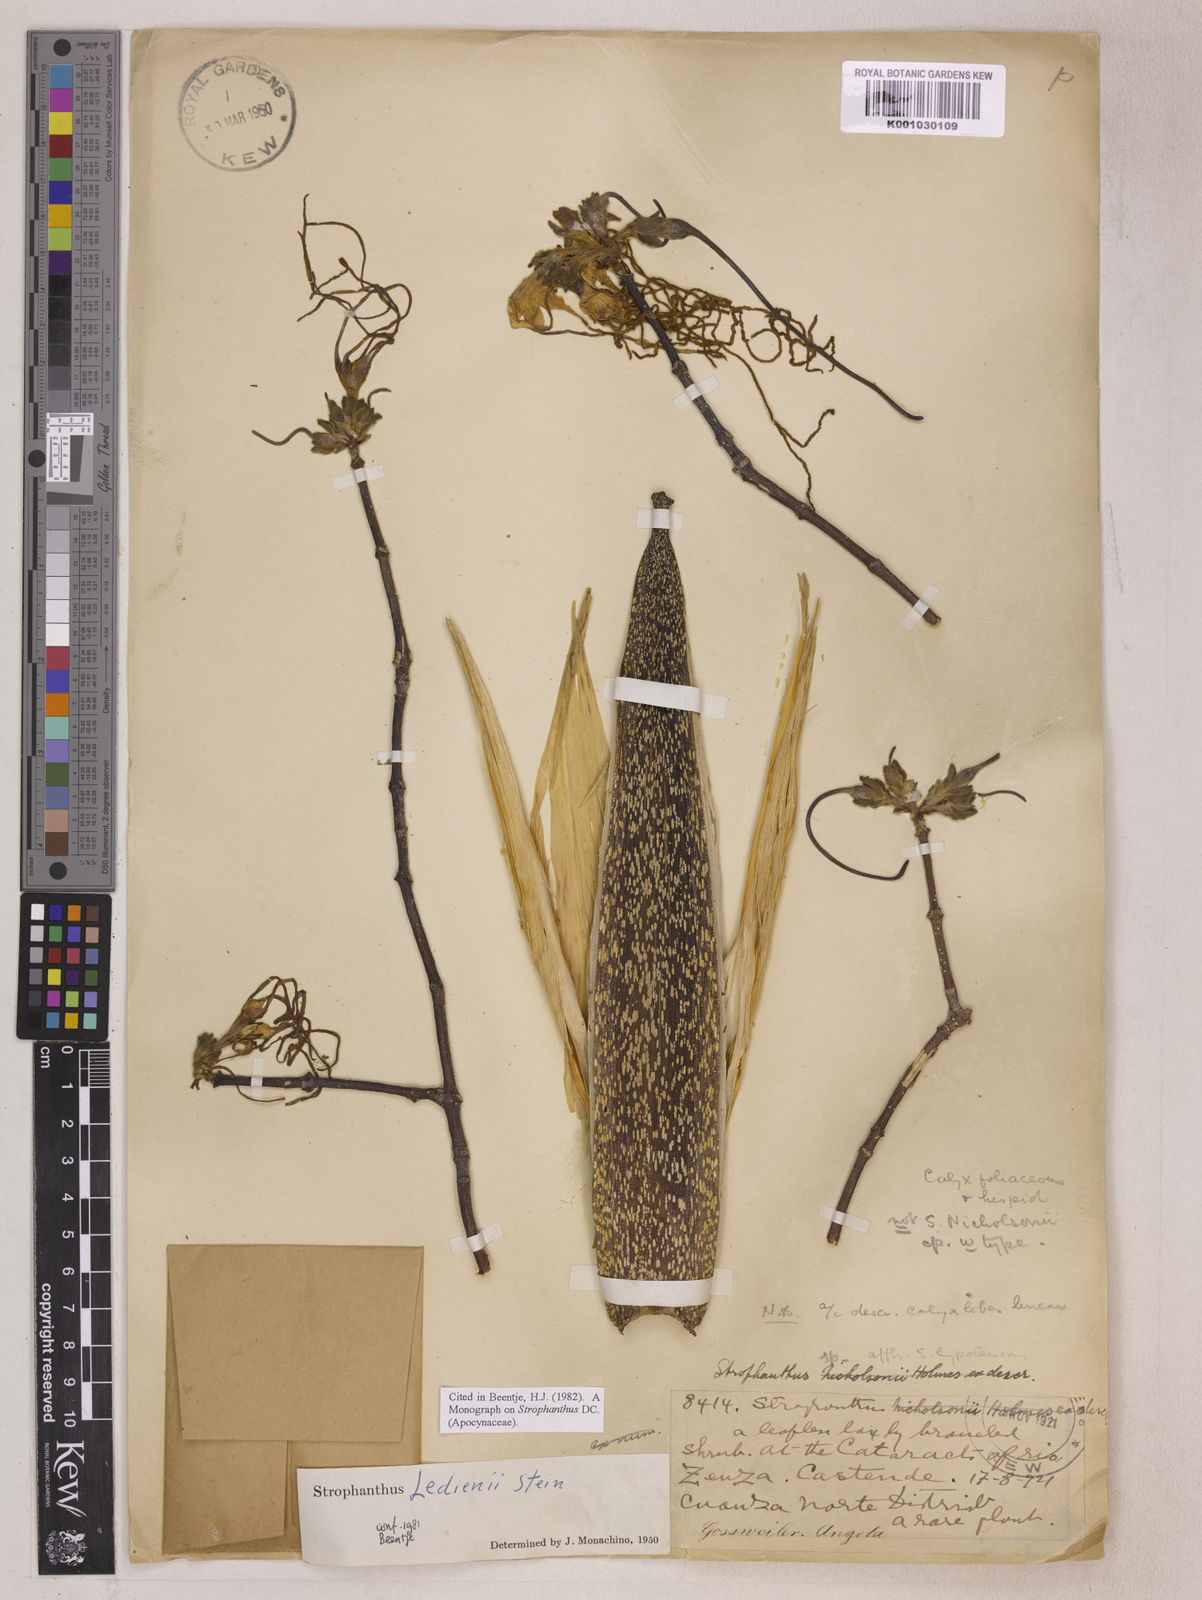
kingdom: Plantae
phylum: Tracheophyta
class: Magnoliopsida
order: Gentianales
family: Apocynaceae
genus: Strophanthus
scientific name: Strophanthus ledienii
